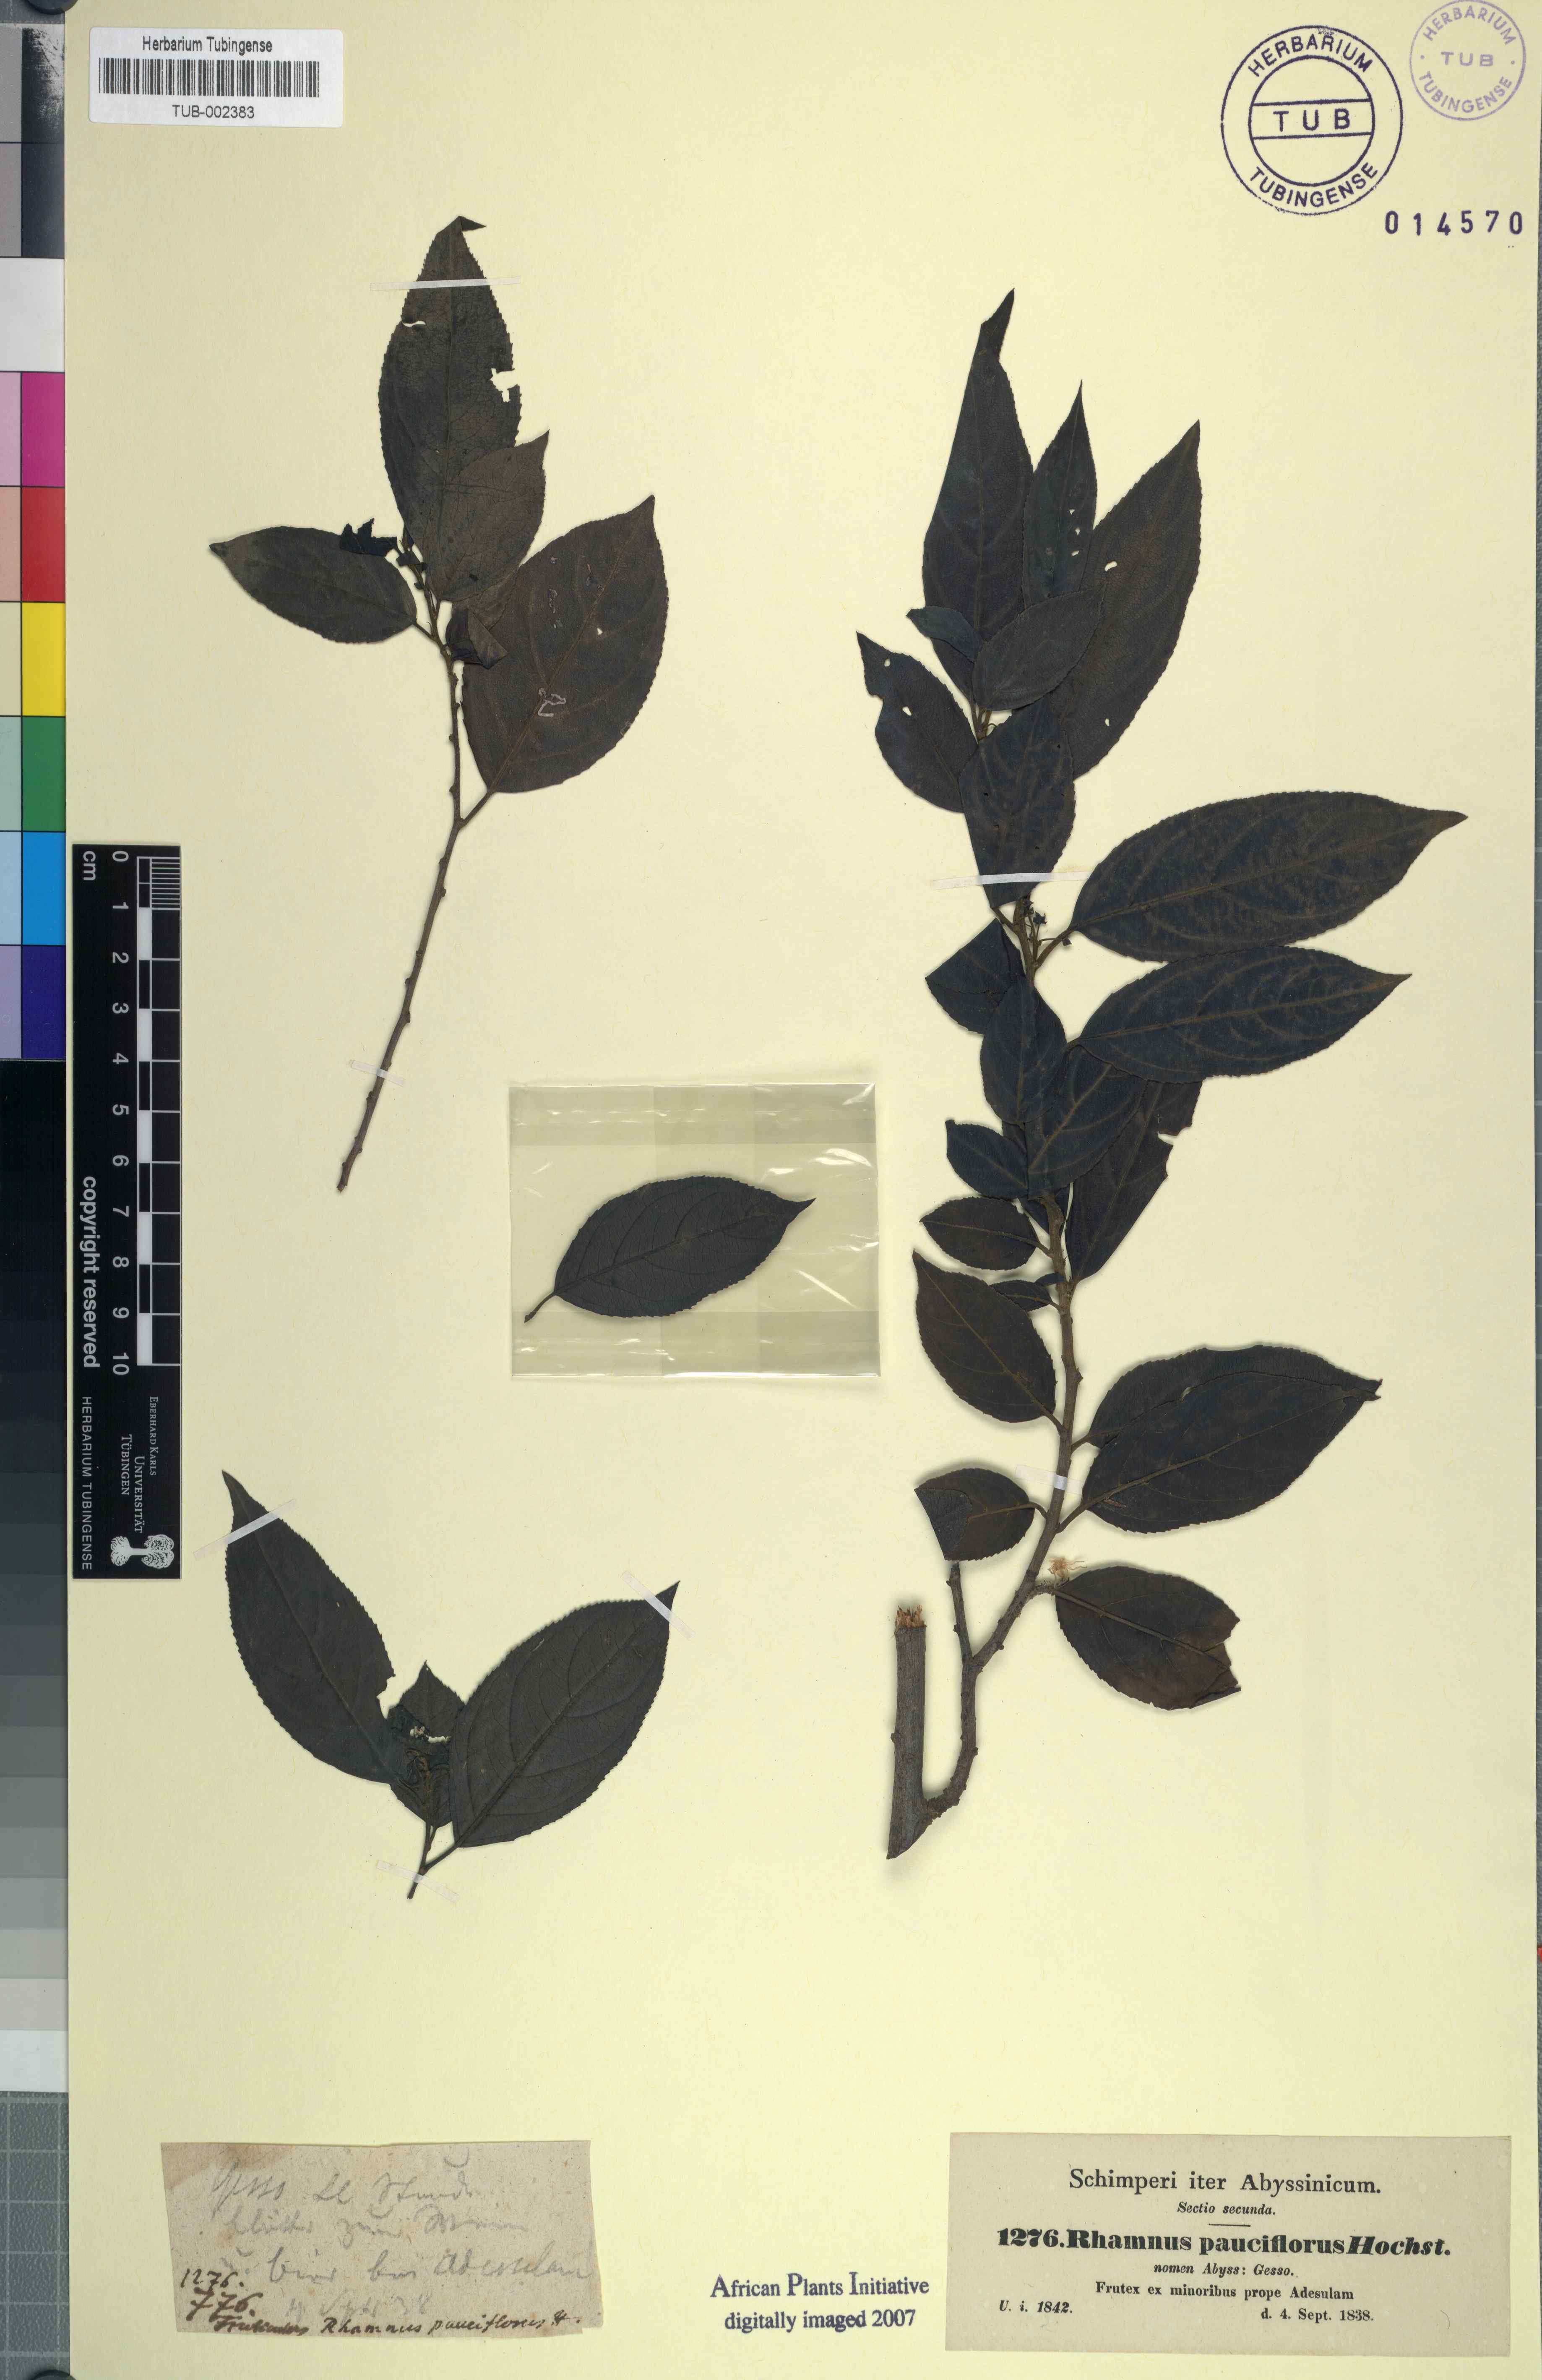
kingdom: Plantae
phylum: Tracheophyta
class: Magnoliopsida
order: Rosales
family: Rhamnaceae
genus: Rhamnus
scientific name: Rhamnus prinoides
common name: Dogwood
